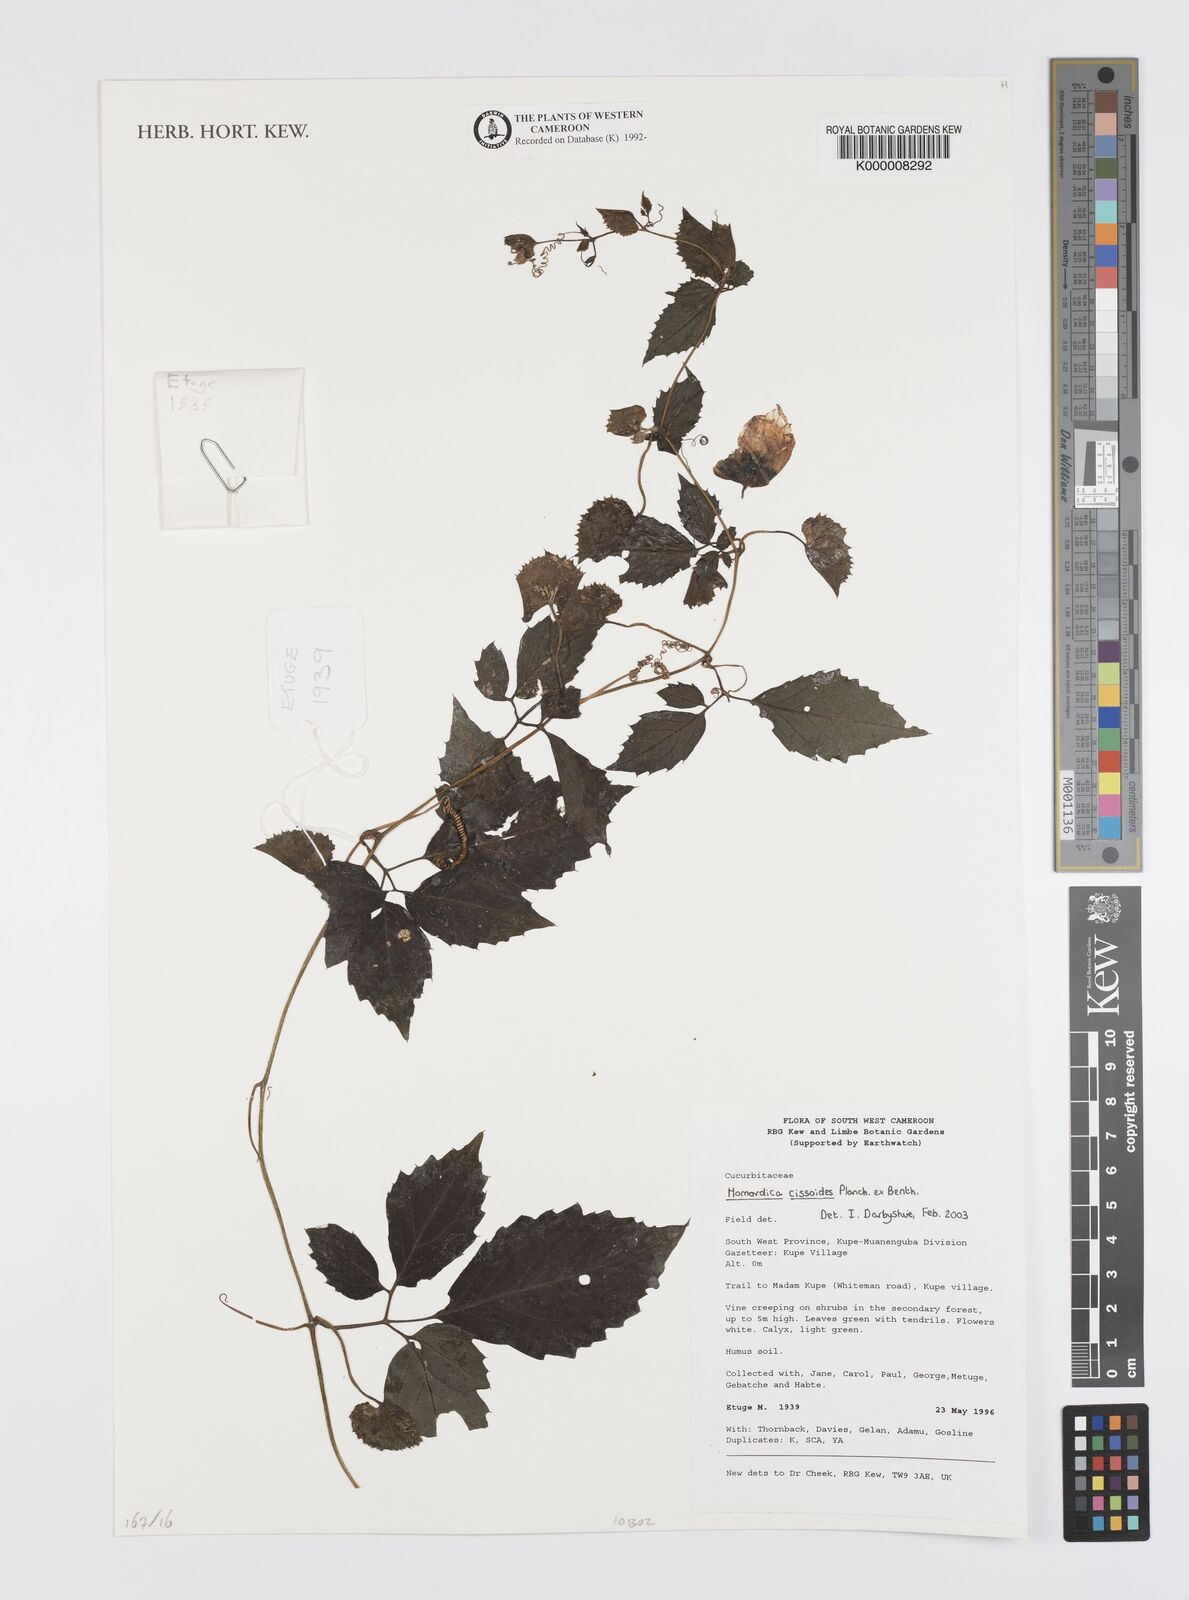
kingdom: Plantae
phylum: Tracheophyta
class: Magnoliopsida
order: Cucurbitales
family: Cucurbitaceae
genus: Momordica
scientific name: Momordica cissoides
